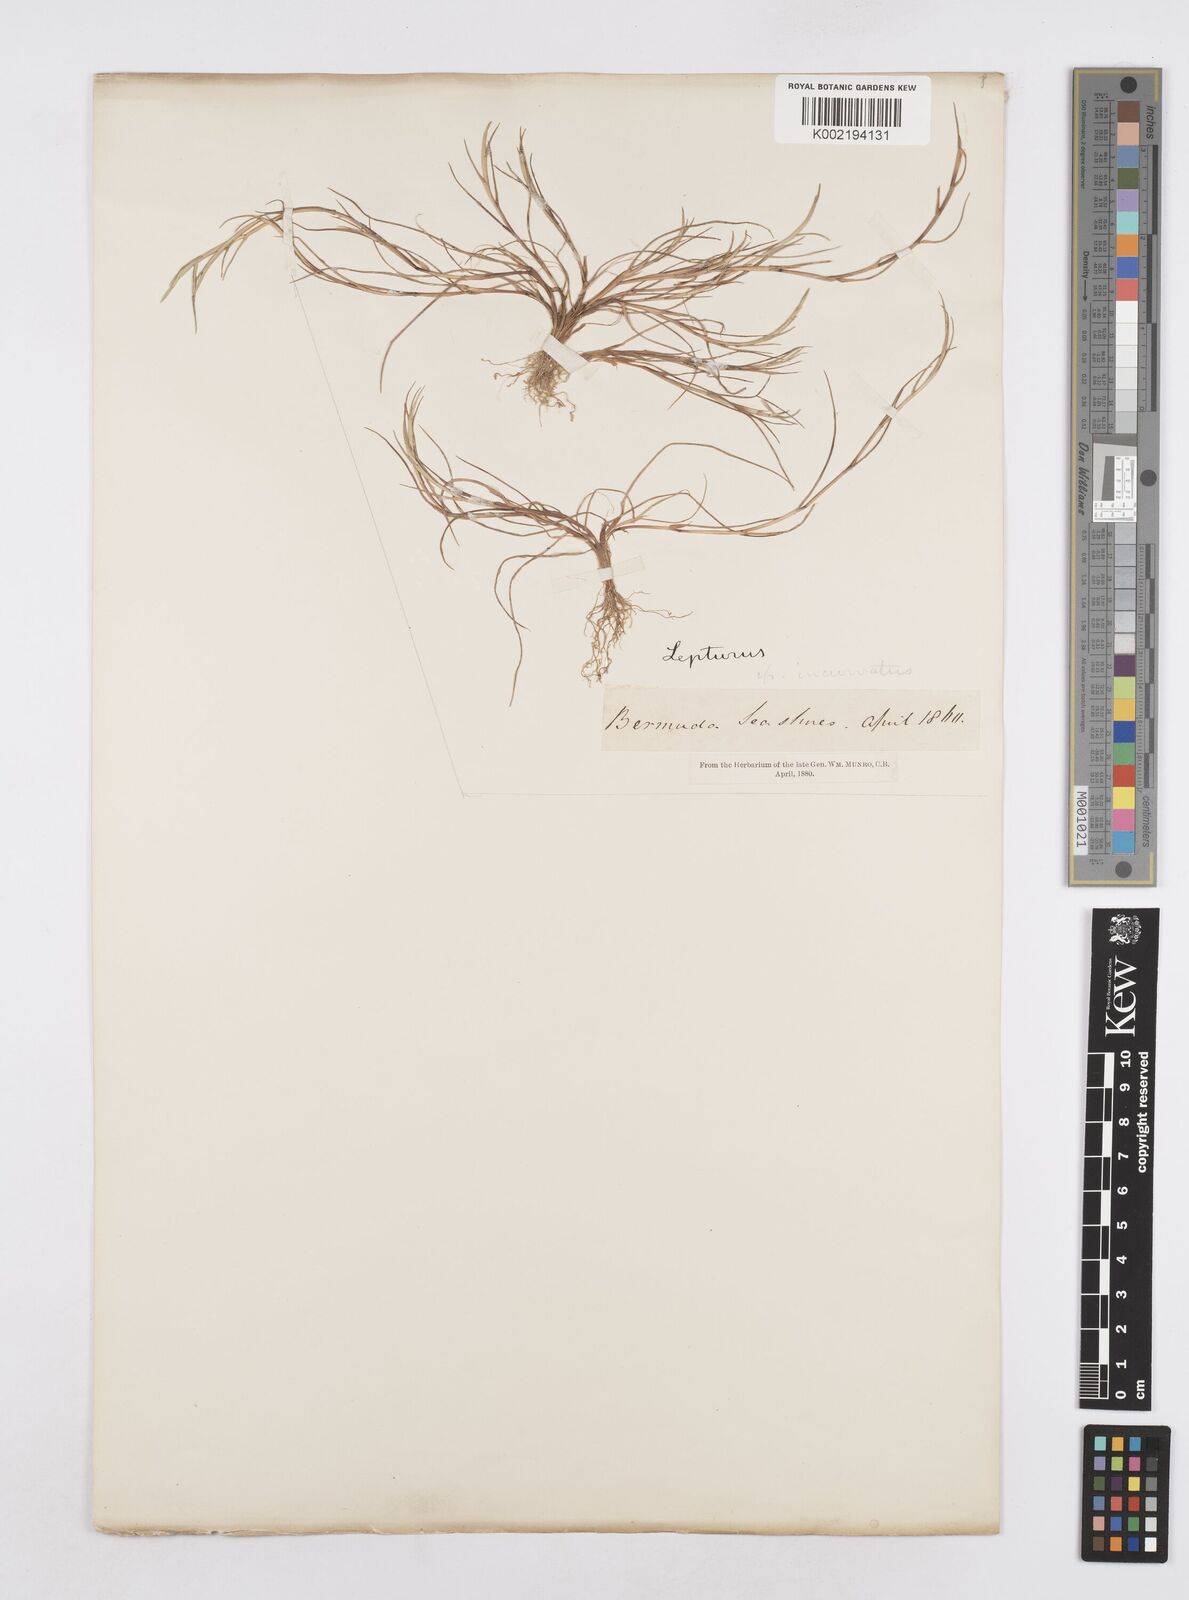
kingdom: Plantae
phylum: Tracheophyta
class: Liliopsida
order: Poales
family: Poaceae
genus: Parapholis
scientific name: Parapholis incurva
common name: Curved sicklegrass
